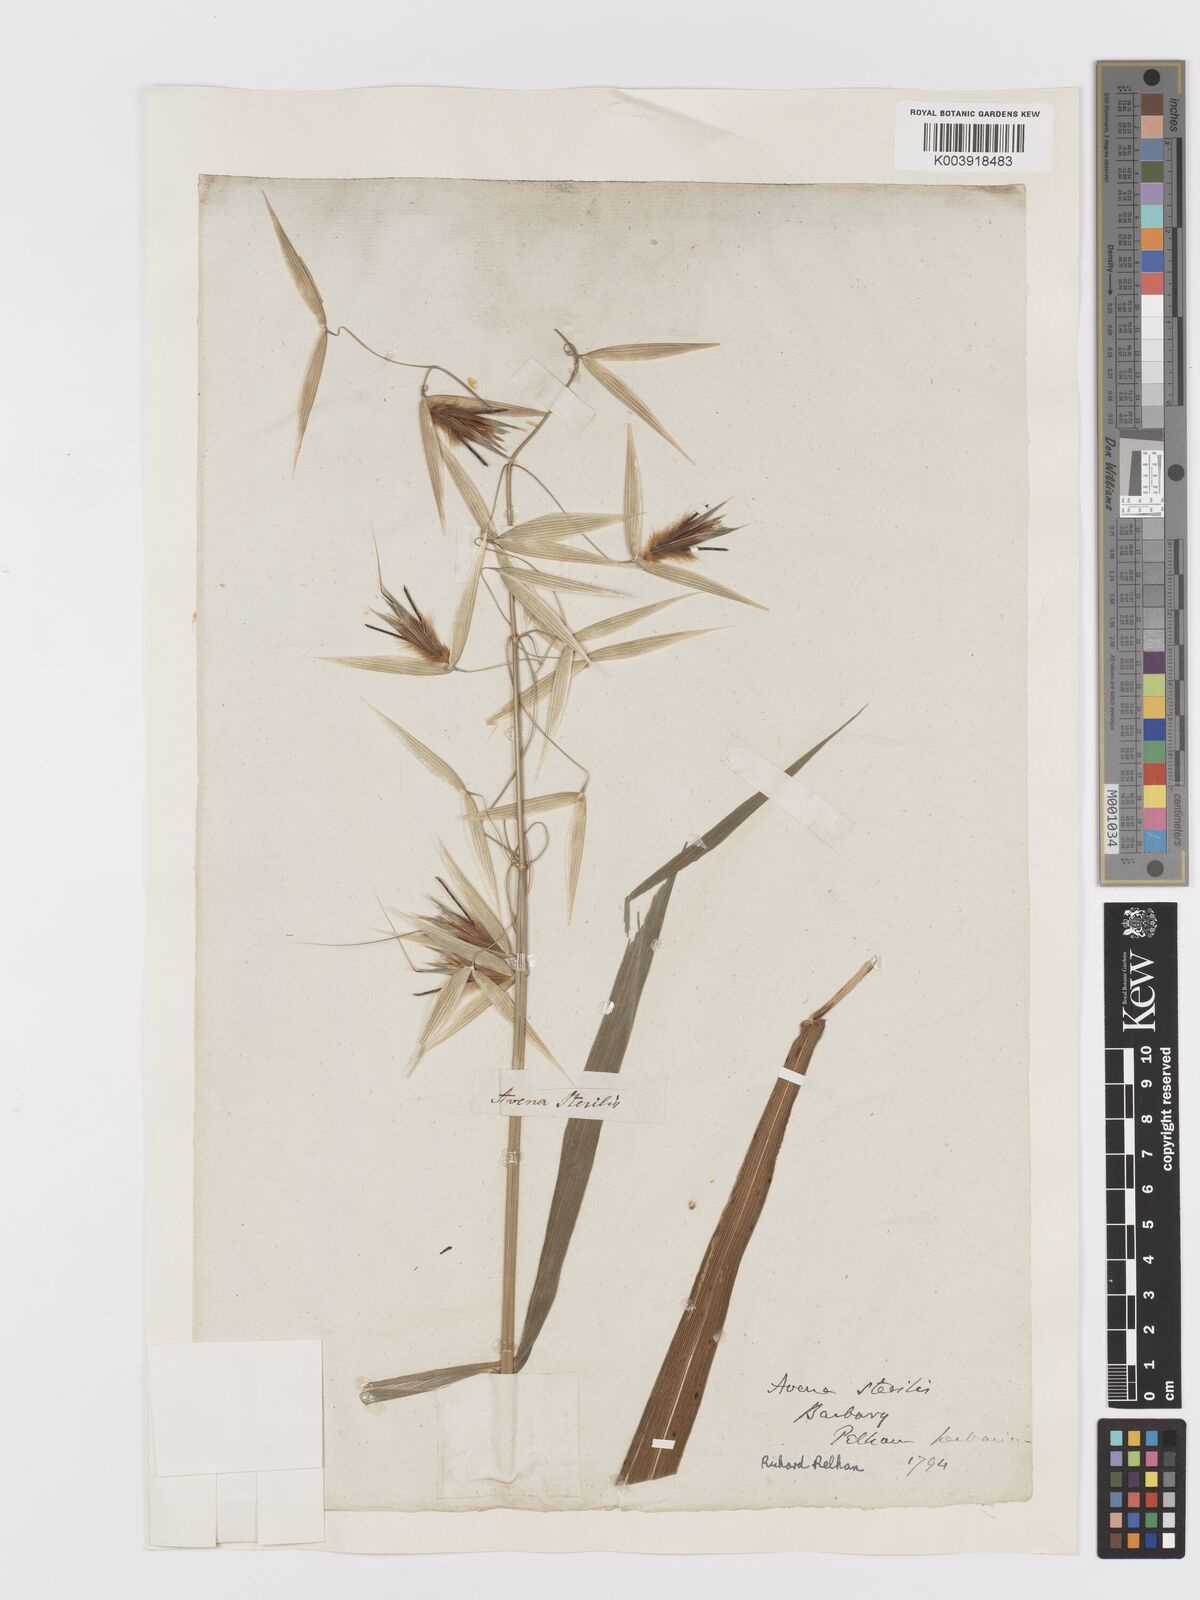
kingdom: Plantae
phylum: Tracheophyta
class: Liliopsida
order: Poales
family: Poaceae
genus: Avena
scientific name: Avena sterilis
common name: Animated oat
